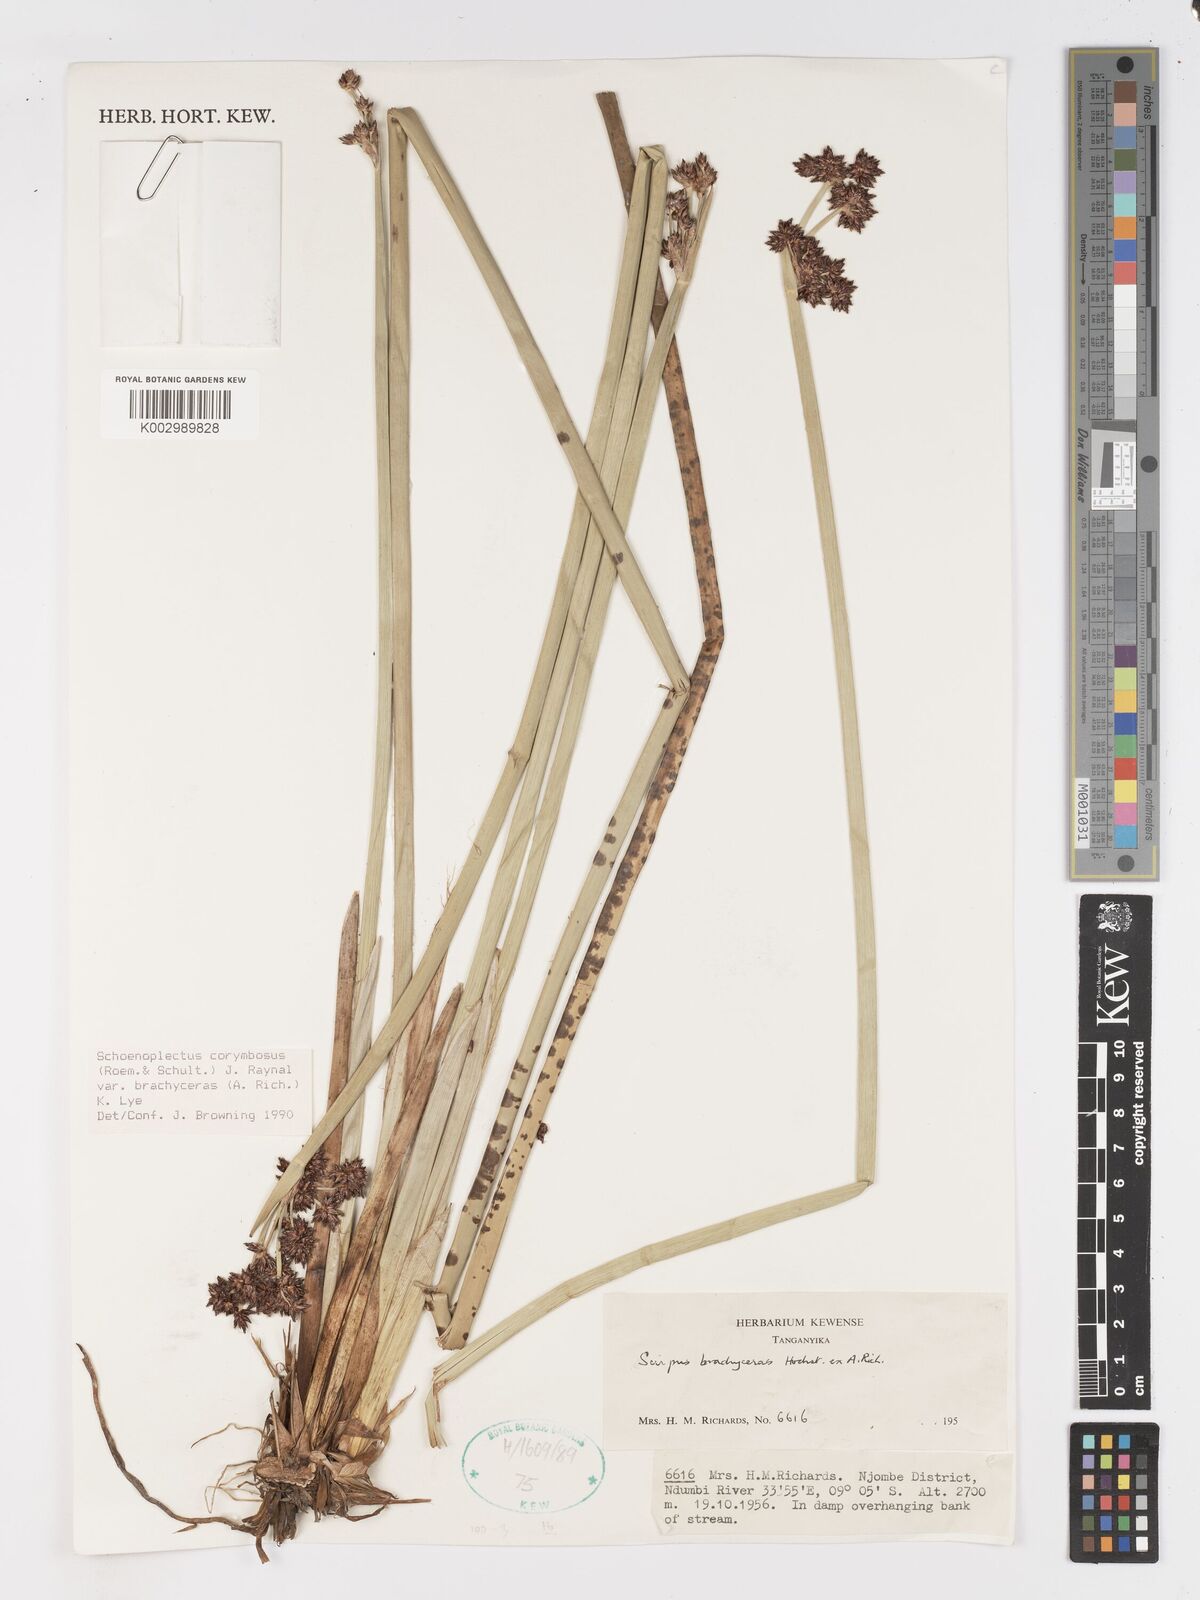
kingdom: Plantae
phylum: Tracheophyta
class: Liliopsida
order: Poales
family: Cyperaceae
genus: Schoenoplectiella
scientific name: Schoenoplectiella brachyceras
